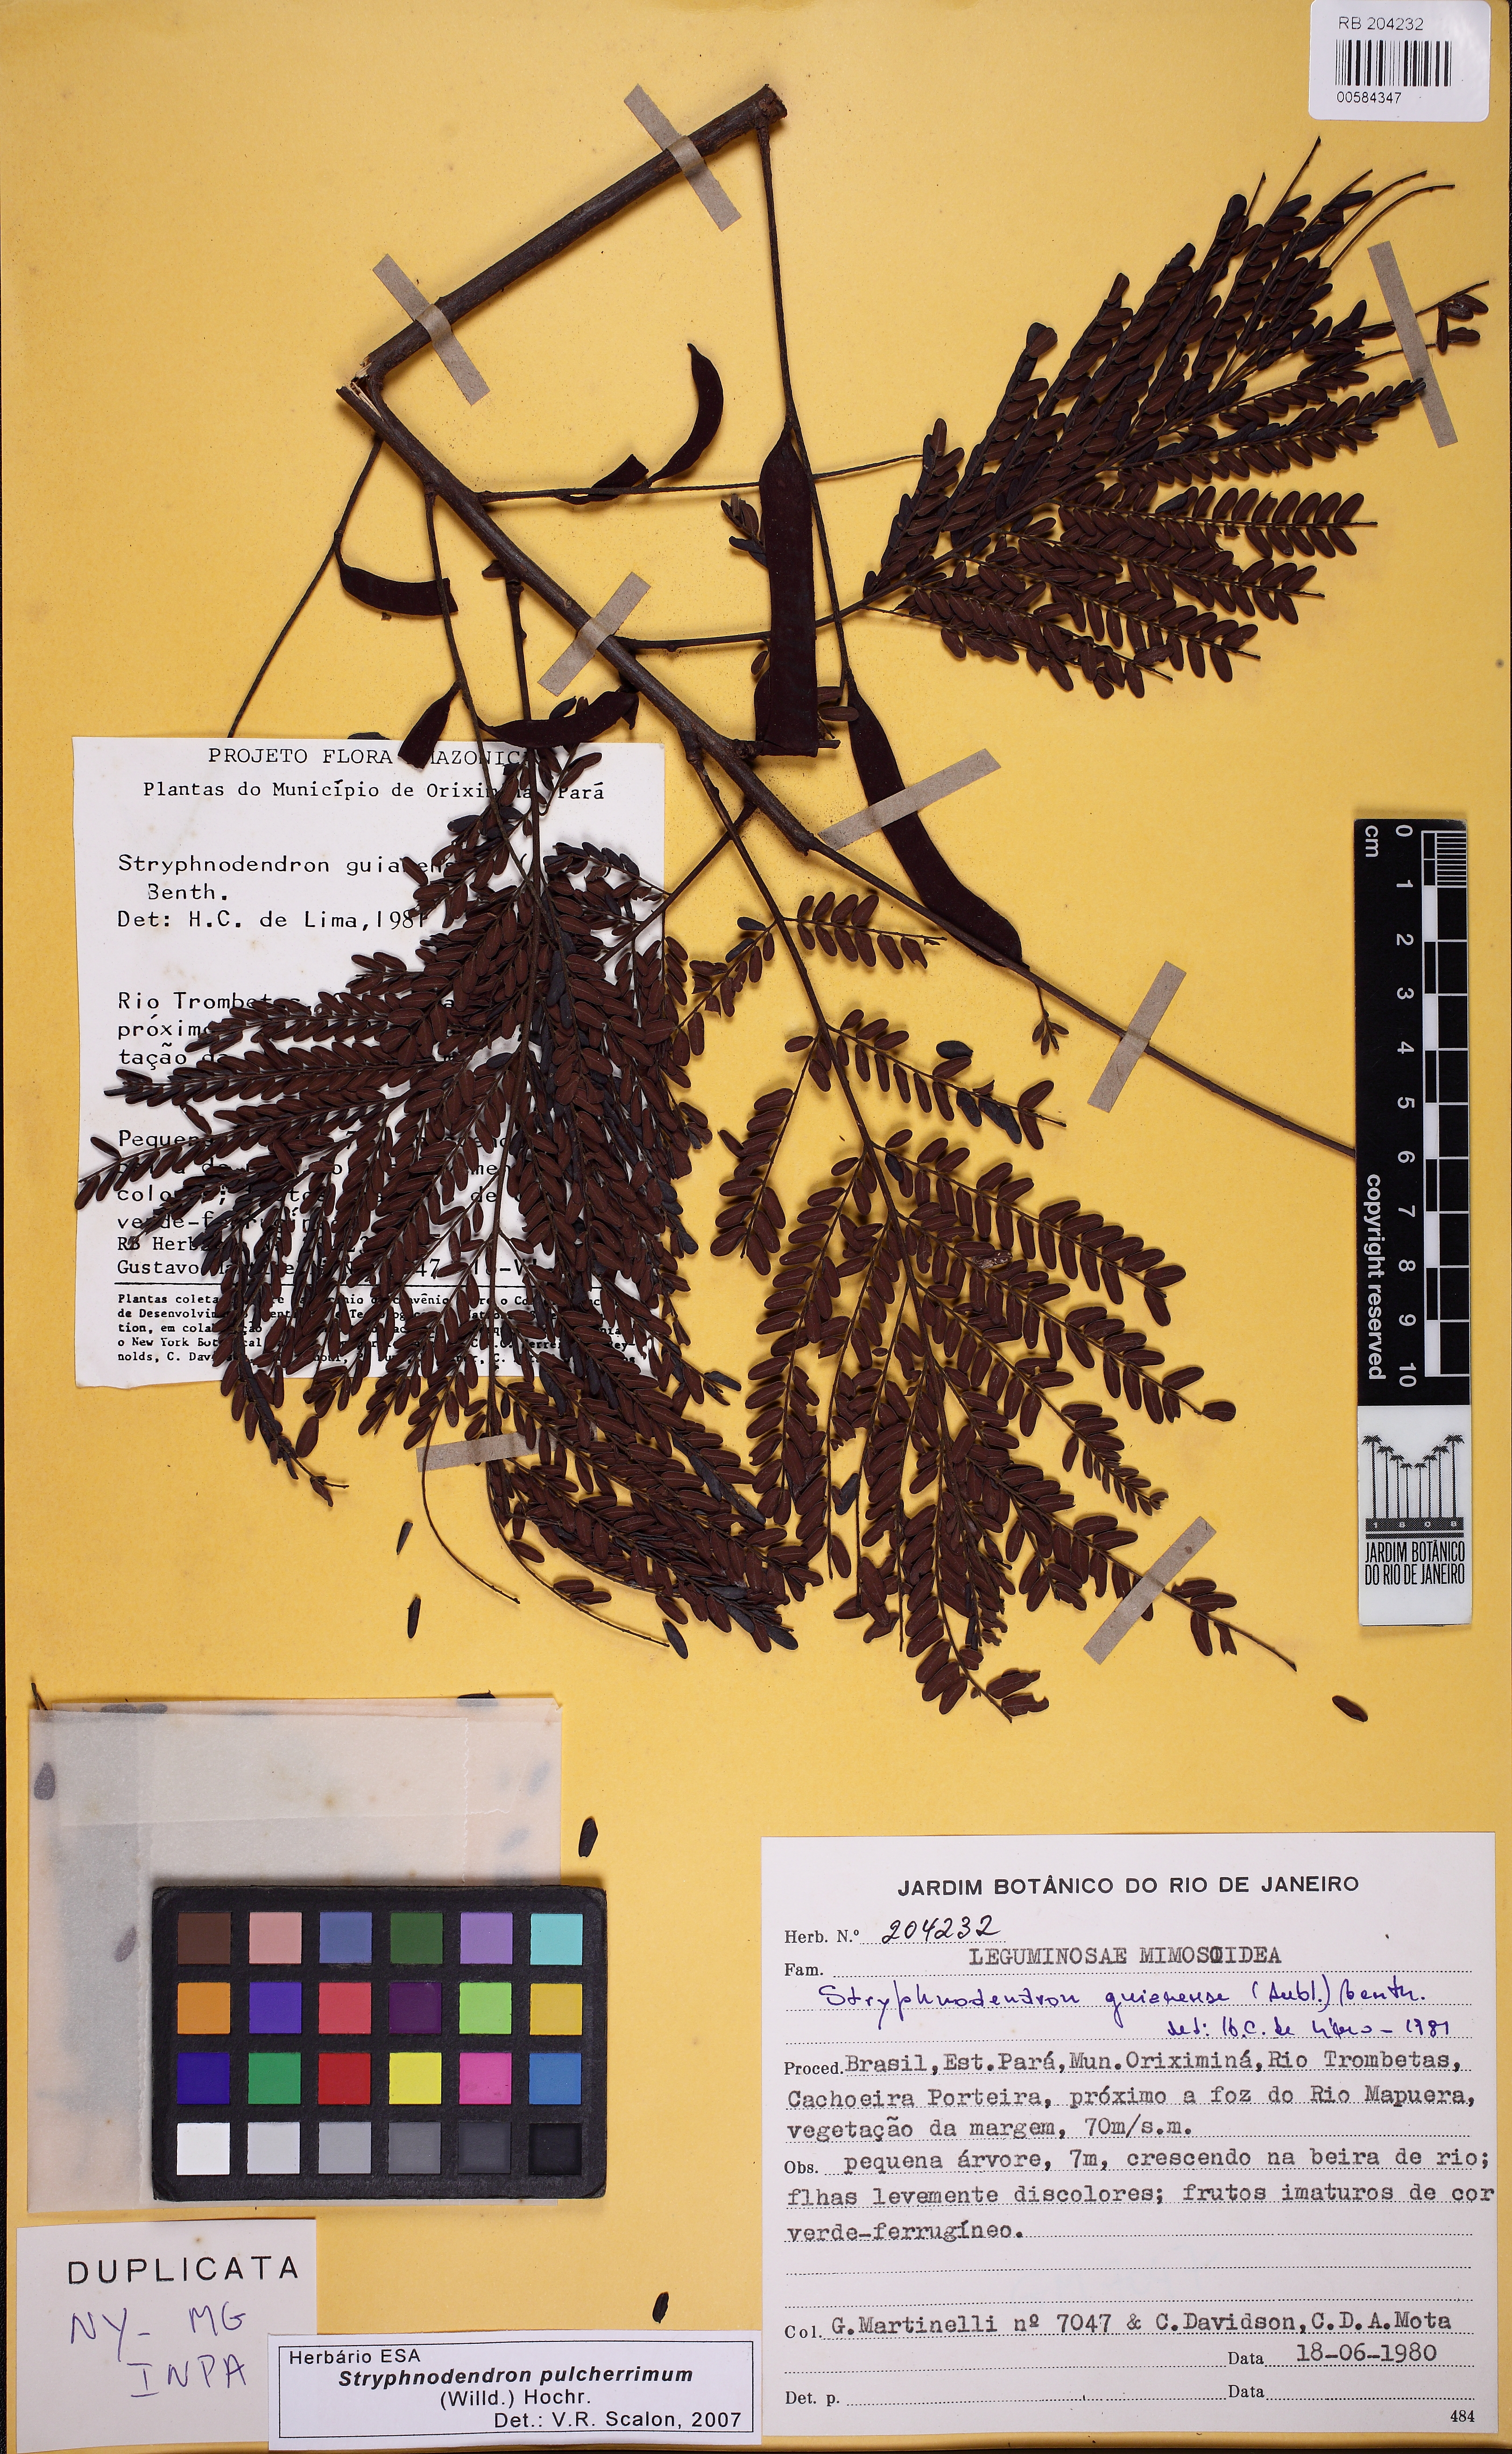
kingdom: Plantae
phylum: Tracheophyta
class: Magnoliopsida
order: Fabales
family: Fabaceae
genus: Stryphnodendron
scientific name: Stryphnodendron pulcherrimum
